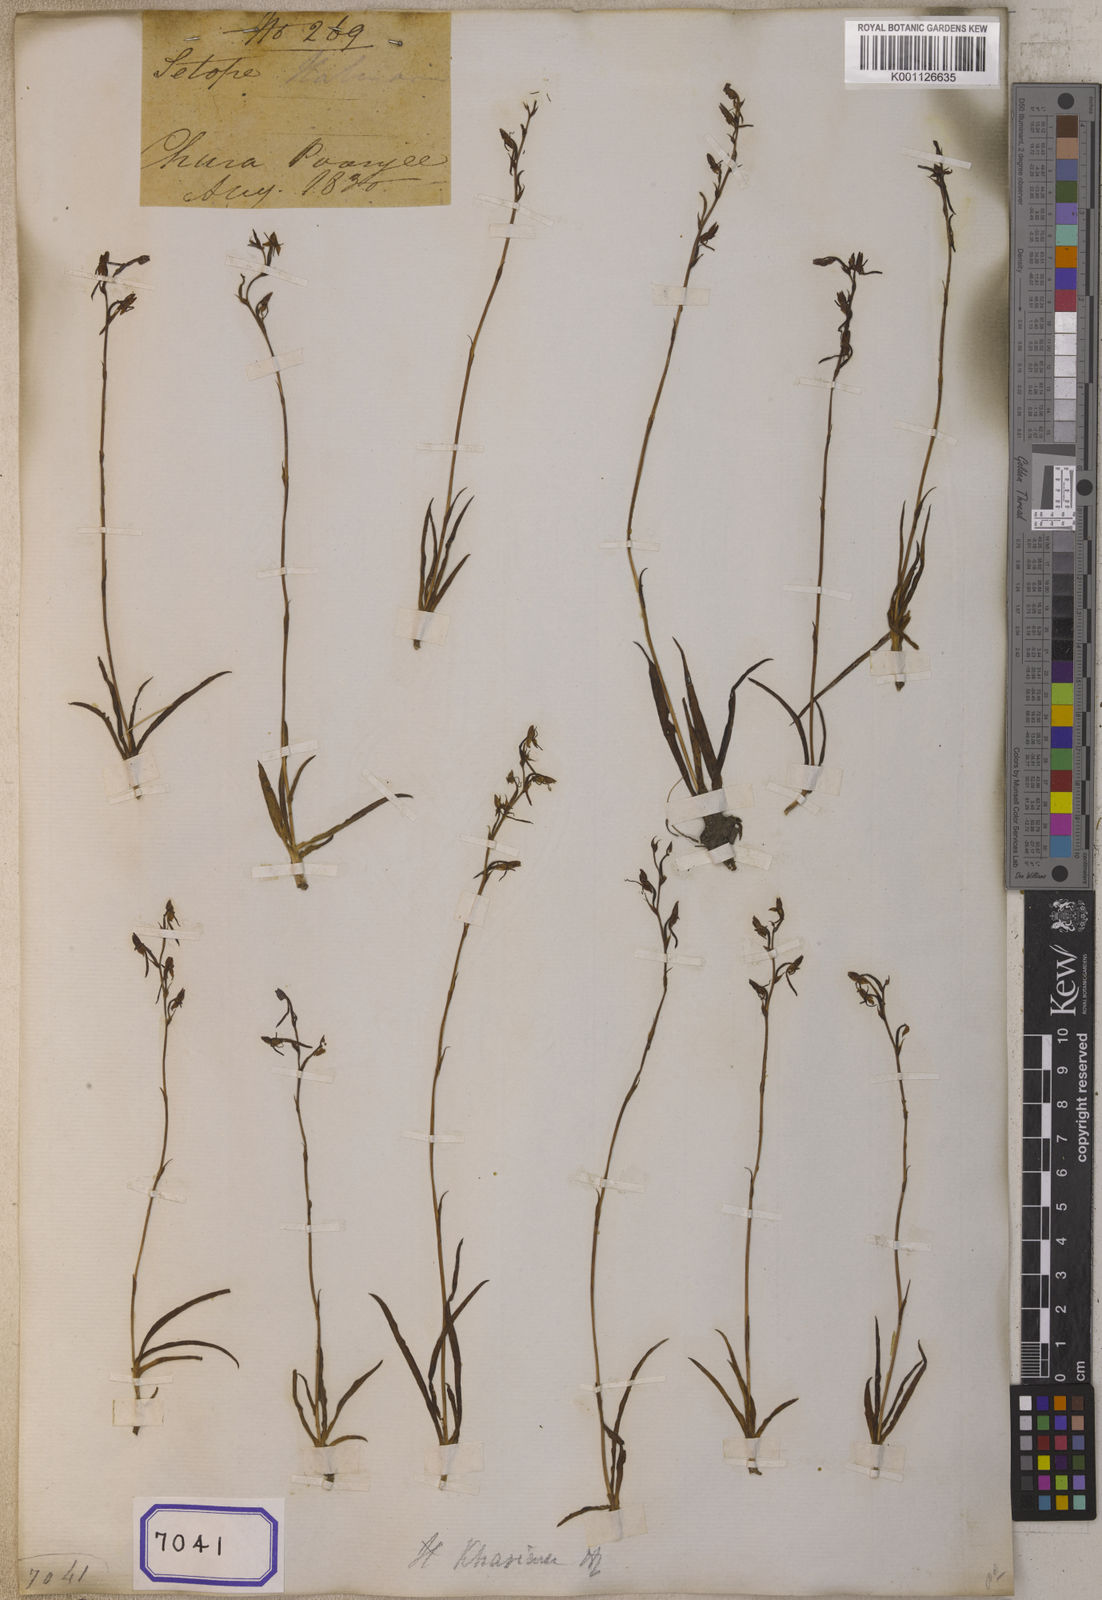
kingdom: Plantae
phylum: Tracheophyta
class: Liliopsida
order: Asparagales
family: Orchidaceae
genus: Platanthera
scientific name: Platanthera
